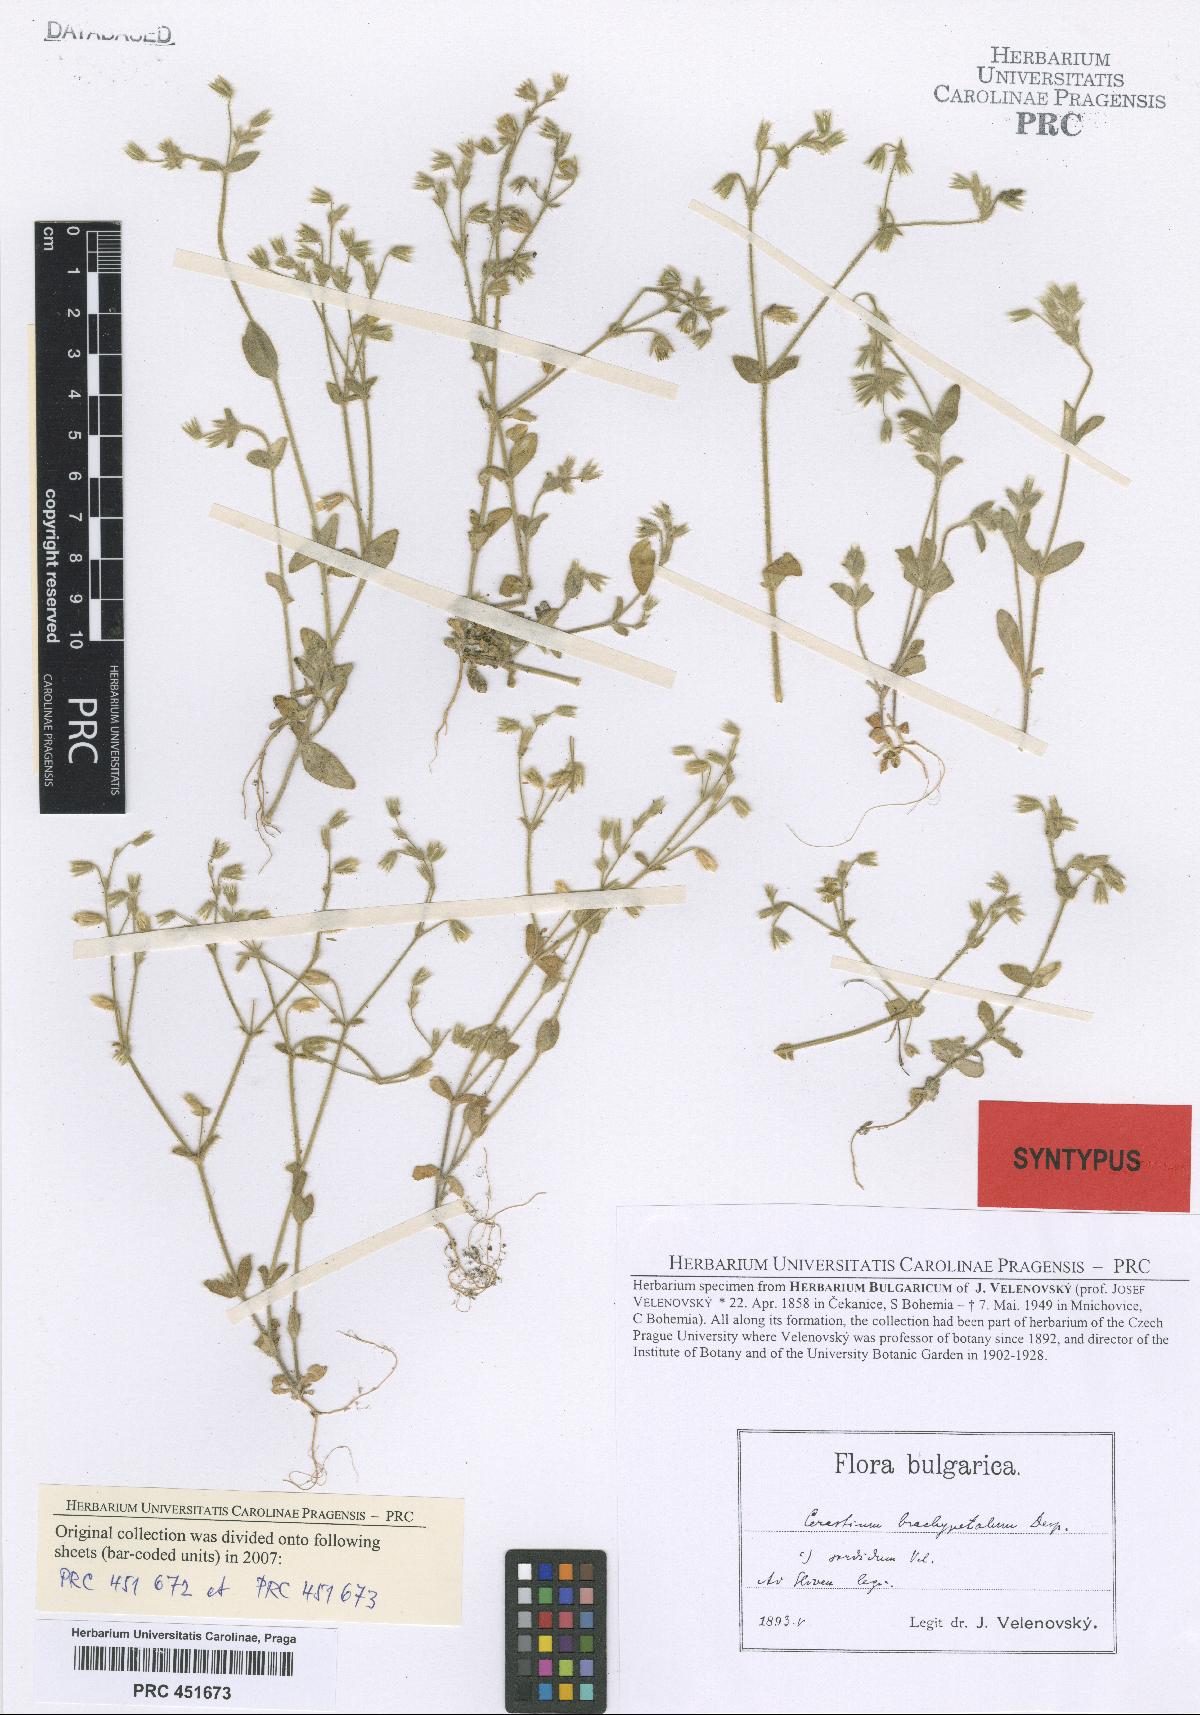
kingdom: Plantae
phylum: Tracheophyta
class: Magnoliopsida
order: Caryophyllales
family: Caryophyllaceae
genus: Cerastium
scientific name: Cerastium brachypetalum
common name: Grey mouse-ear
